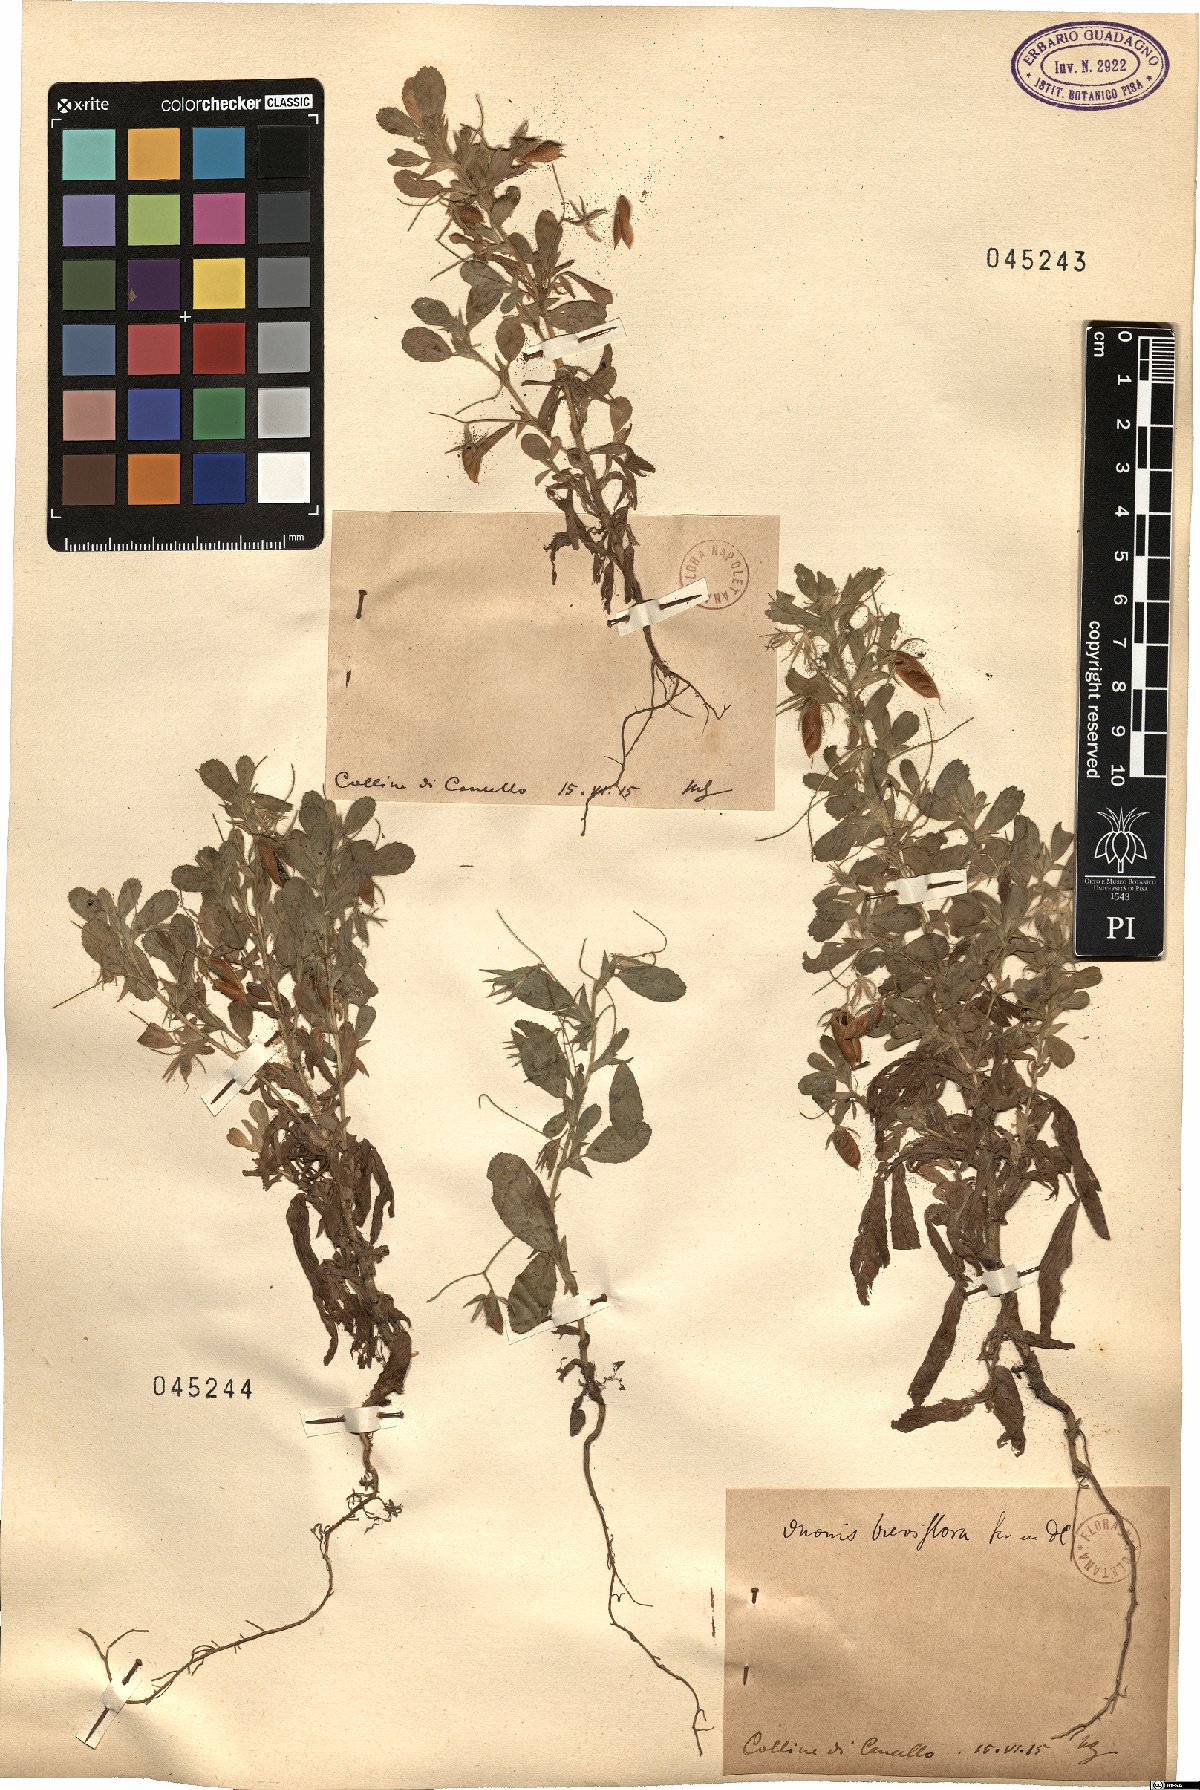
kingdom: Plantae
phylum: Tracheophyta
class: Magnoliopsida
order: Fabales
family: Fabaceae
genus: Ononis
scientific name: Ononis
